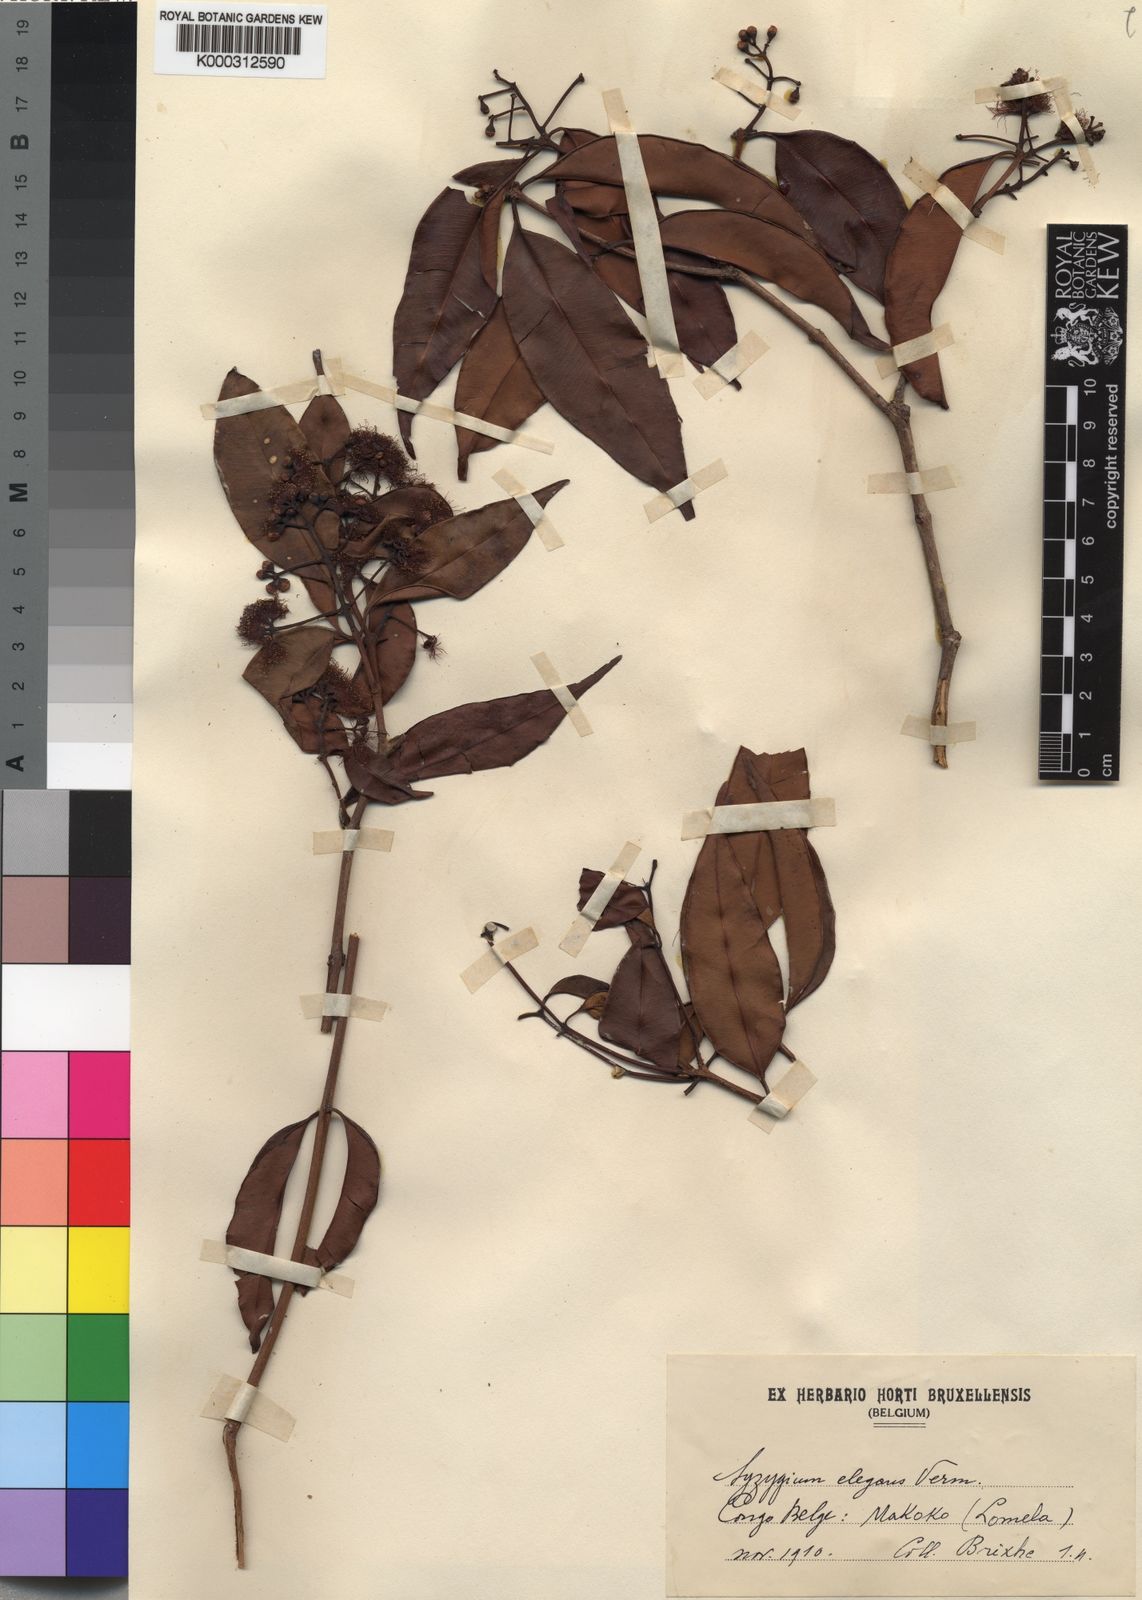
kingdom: Plantae
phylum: Tracheophyta
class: Magnoliopsida
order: Myrtales
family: Myrtaceae
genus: Syzygium
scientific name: Syzygium owariense
